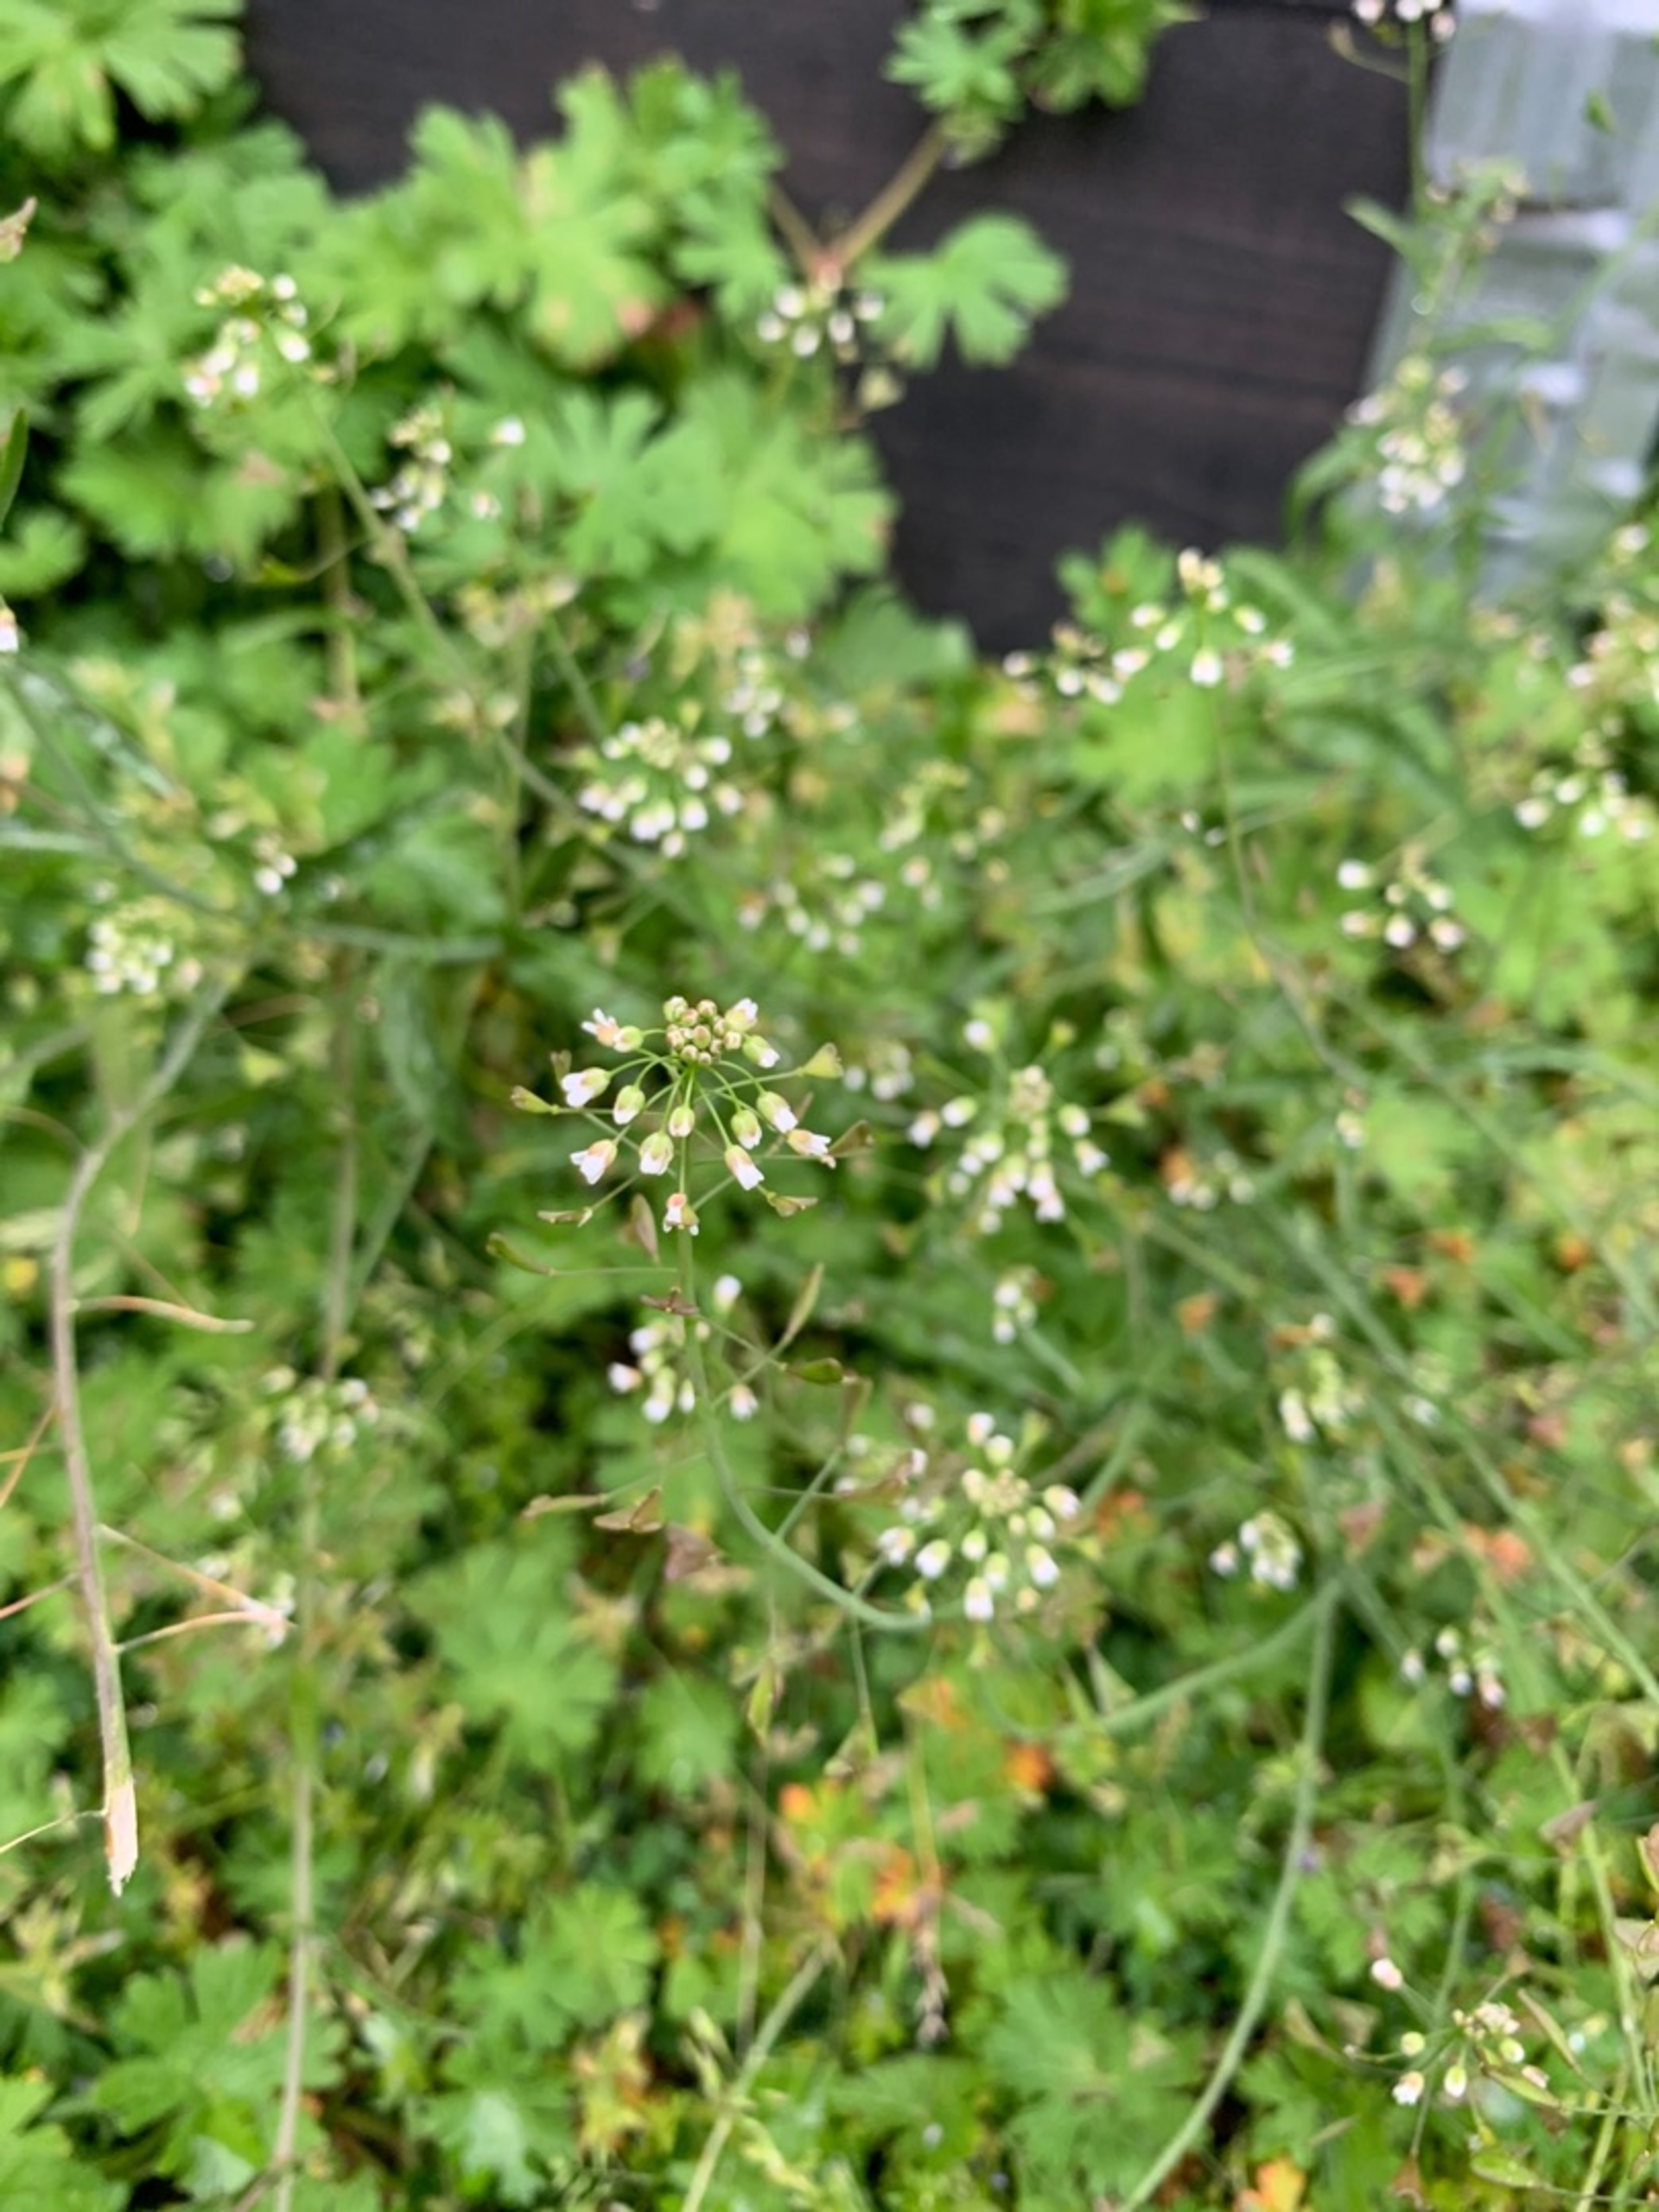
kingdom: Plantae
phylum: Tracheophyta
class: Magnoliopsida
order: Brassicales
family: Brassicaceae
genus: Capsella
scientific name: Capsella
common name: Hyrdetaskeslægten
